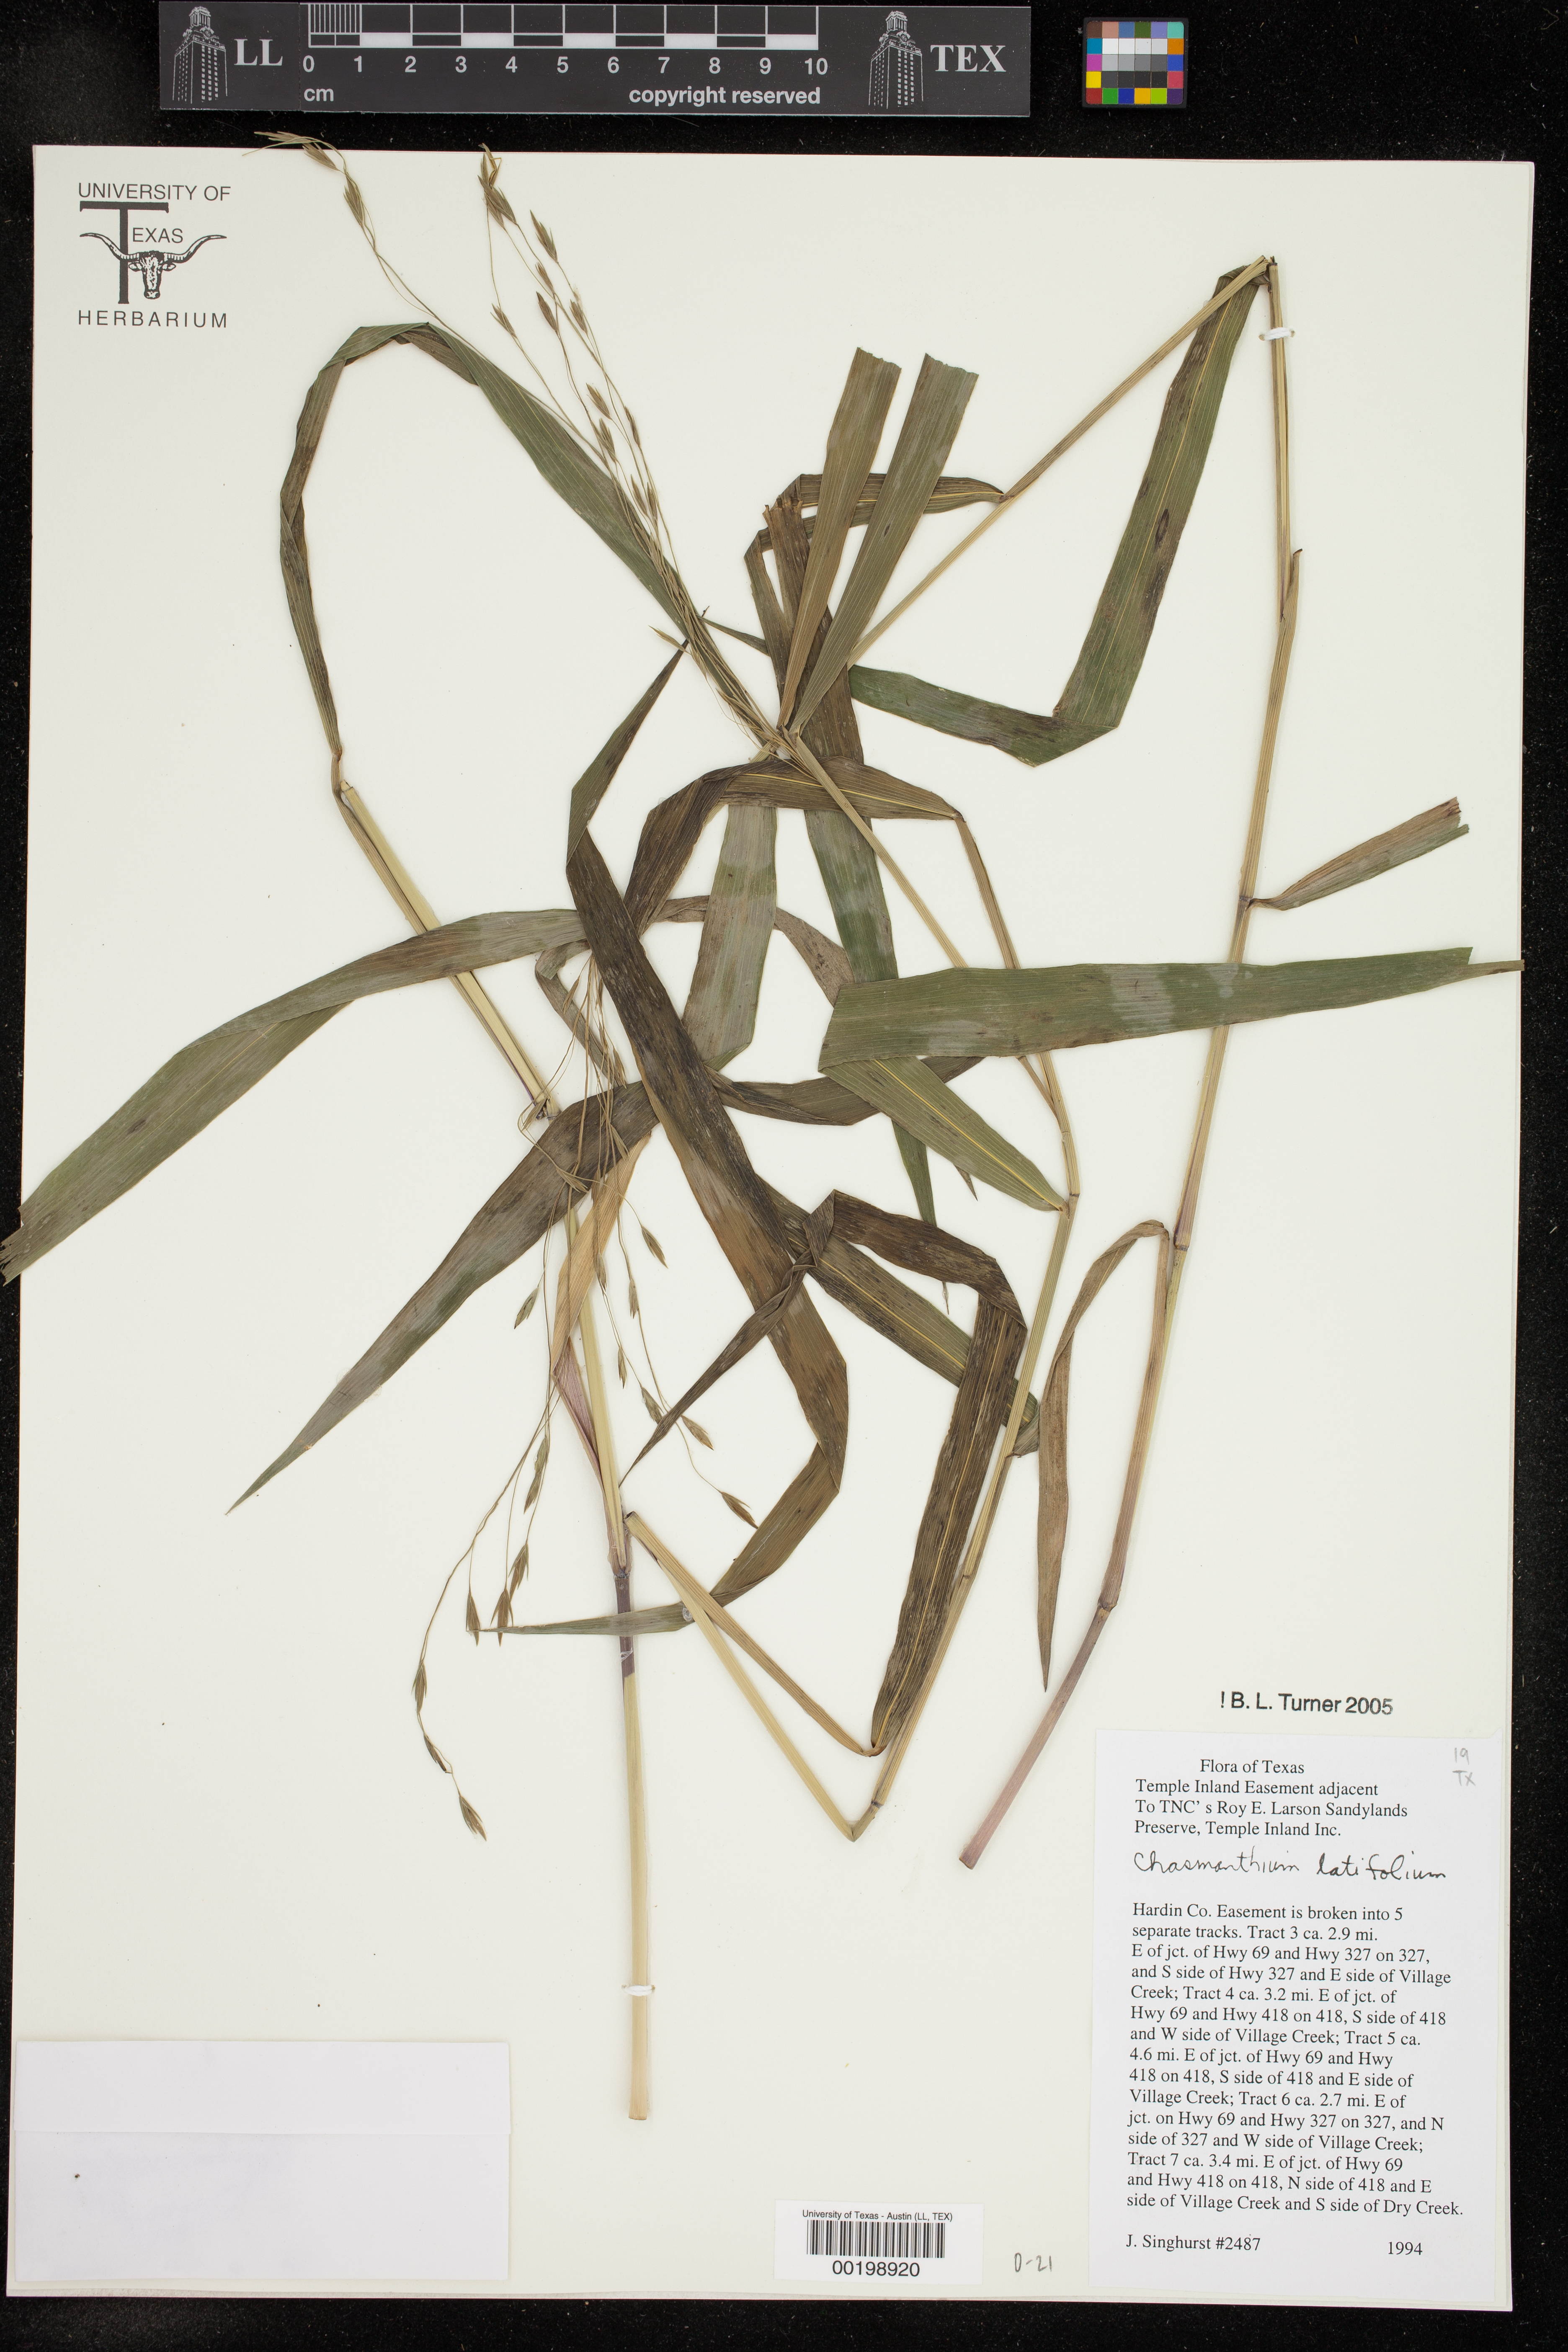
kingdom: Plantae
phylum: Tracheophyta
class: Liliopsida
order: Poales
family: Poaceae
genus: Chasmanthium
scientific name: Chasmanthium latifolium
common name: Broad-leaved chasmanthium
